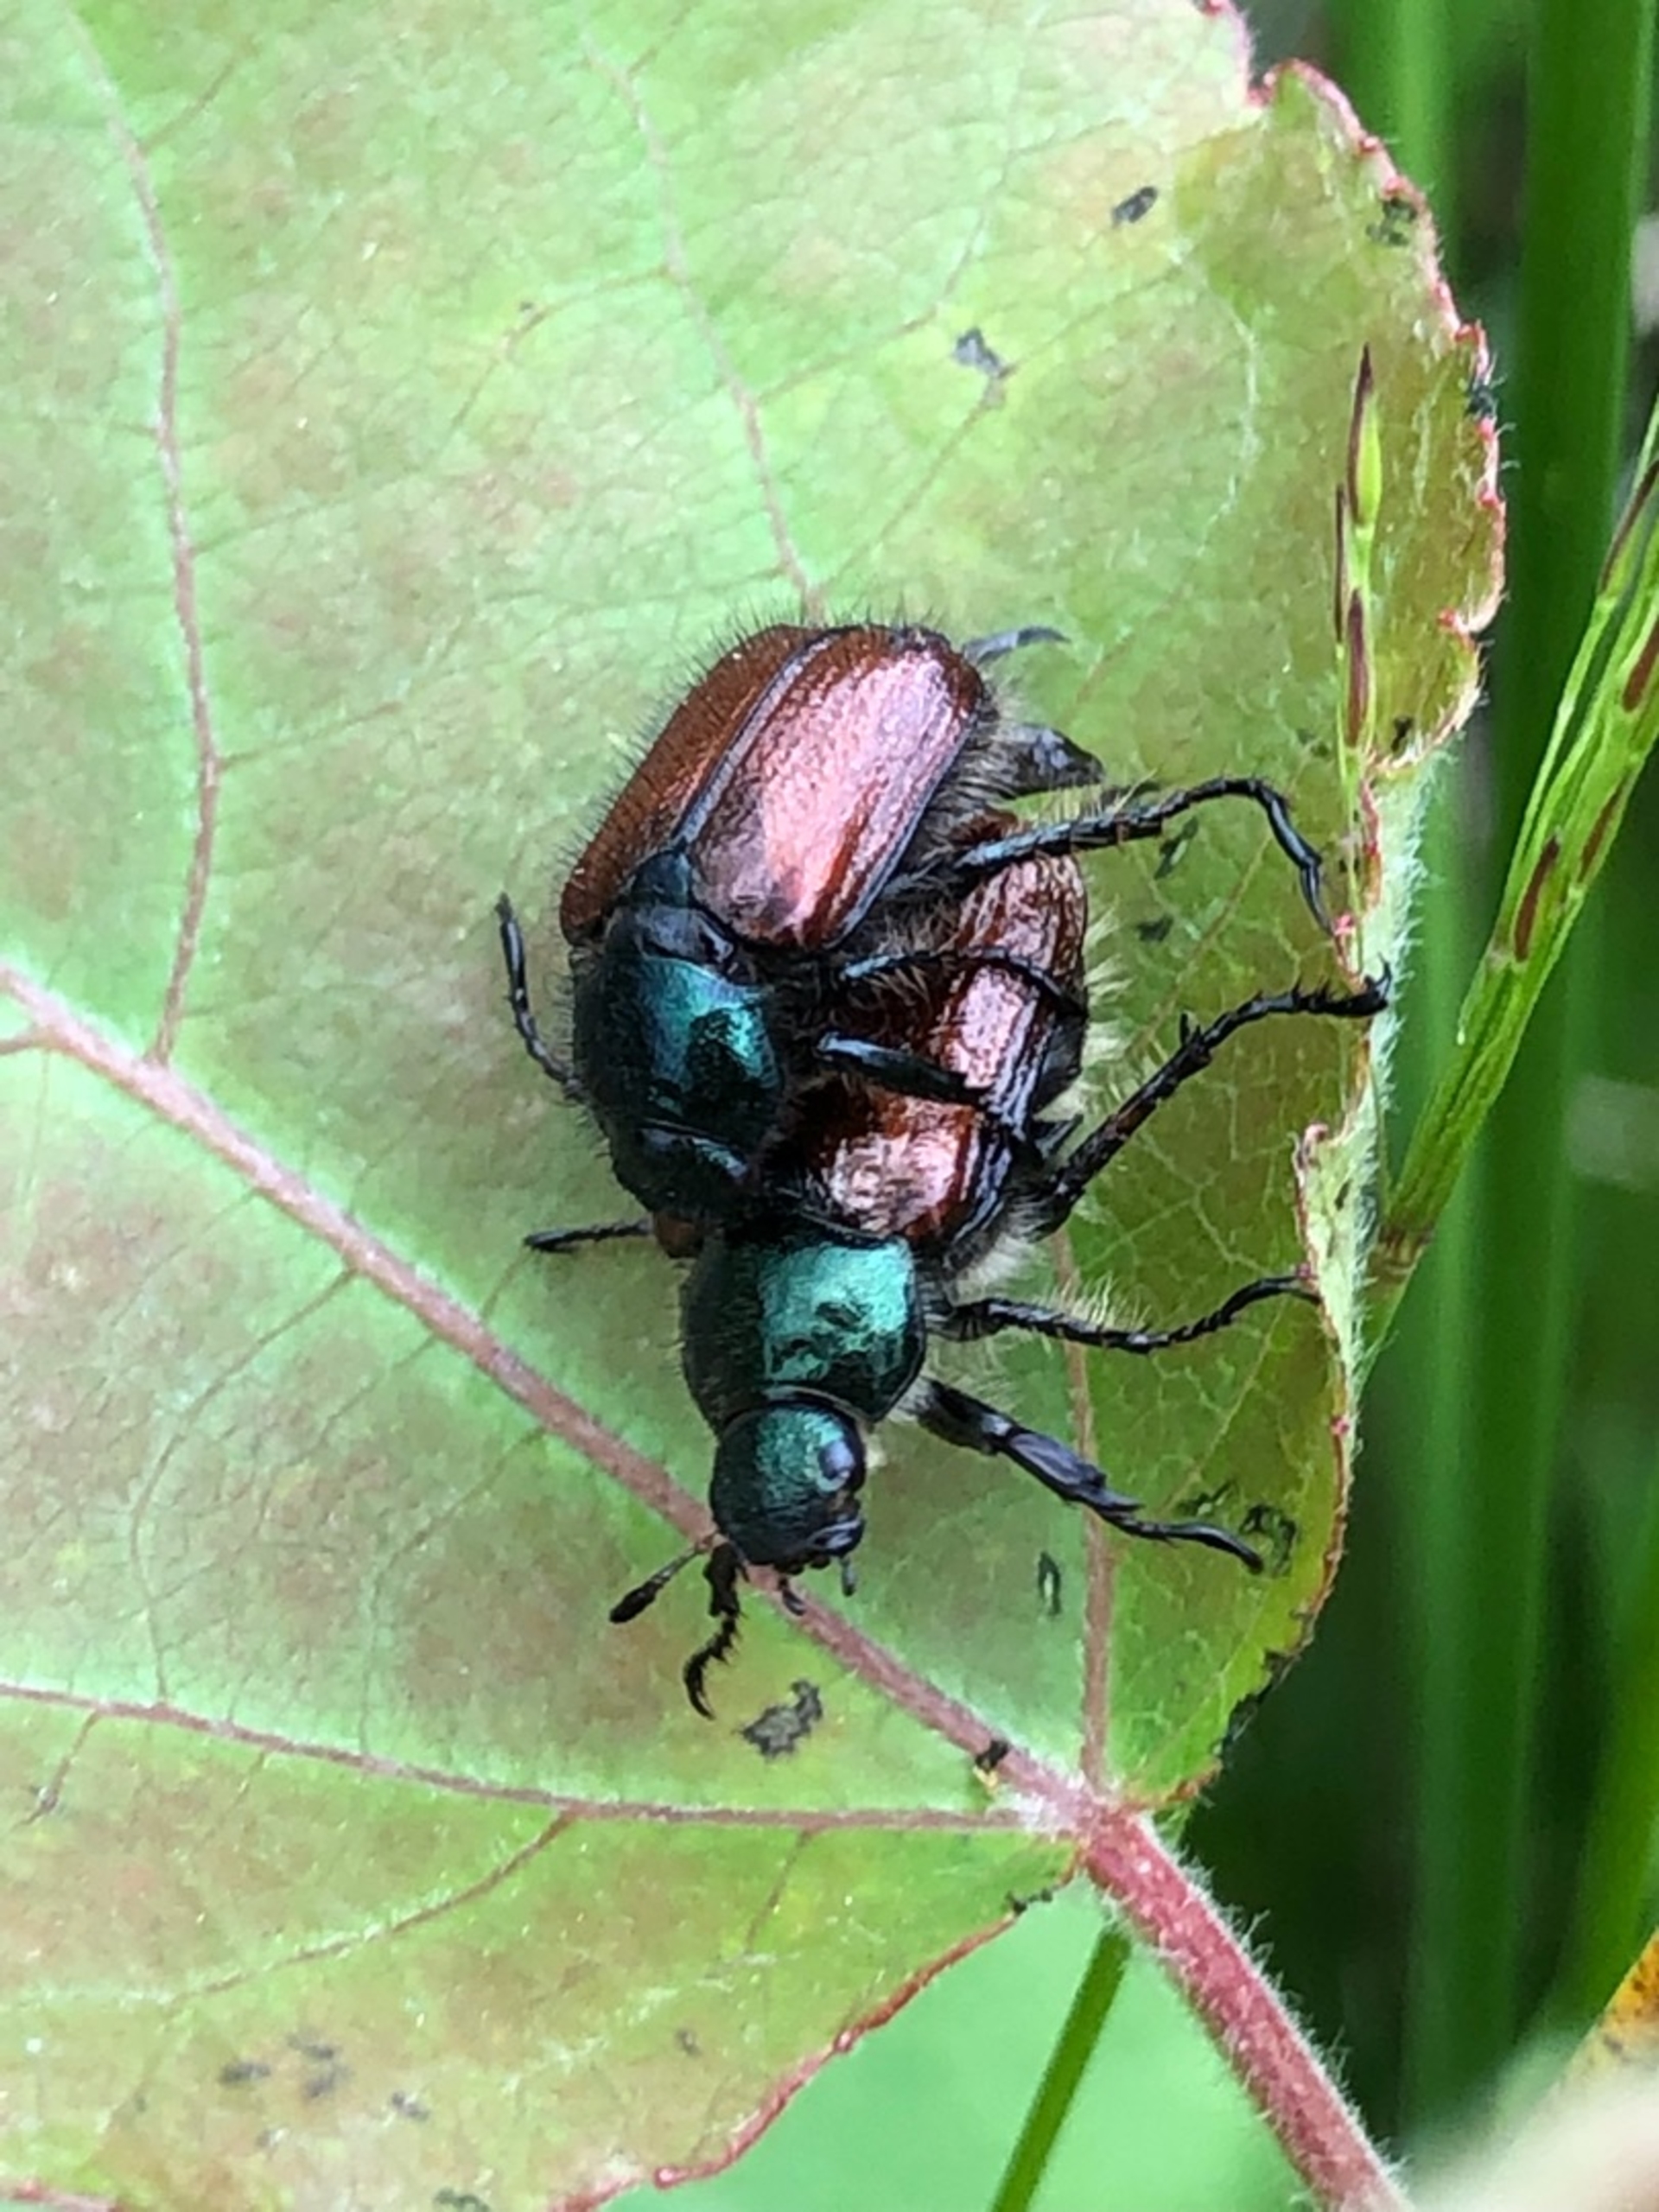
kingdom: Animalia
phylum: Arthropoda
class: Insecta
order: Coleoptera
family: Scarabaeidae
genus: Phyllopertha
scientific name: Phyllopertha horticola
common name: Gåsebille
